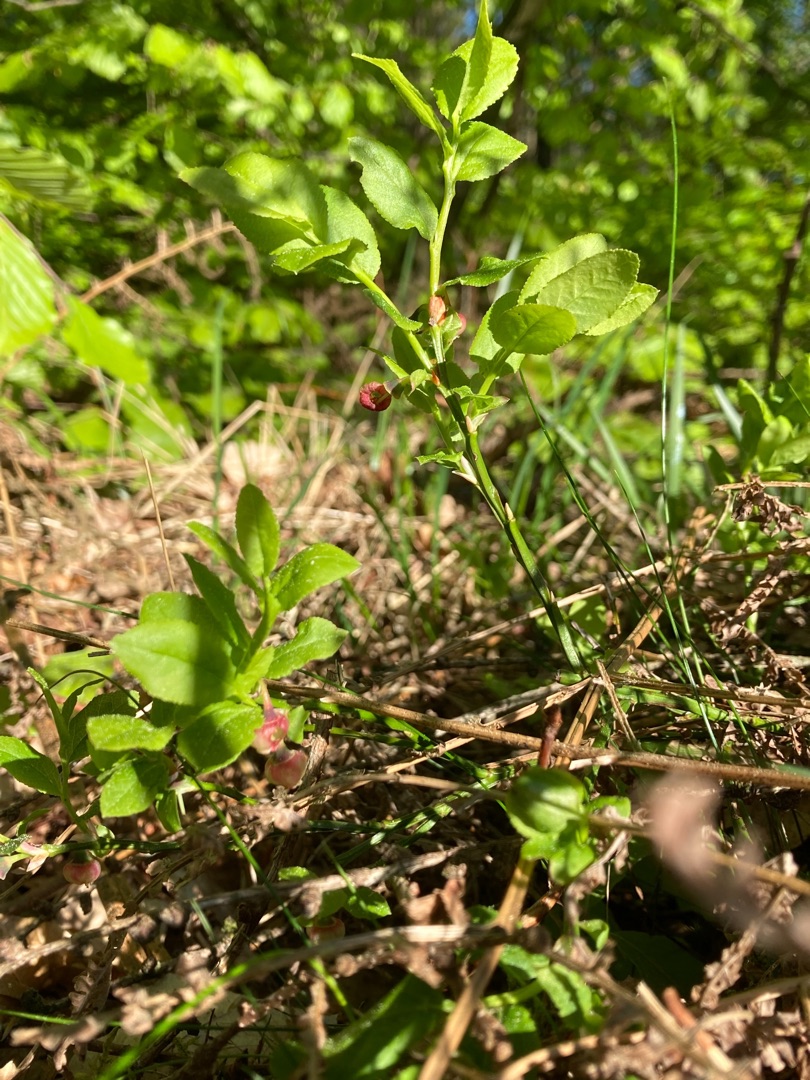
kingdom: Plantae
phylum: Tracheophyta
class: Magnoliopsida
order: Ericales
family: Ericaceae
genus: Vaccinium
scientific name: Vaccinium myrtillus
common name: Blåbær
